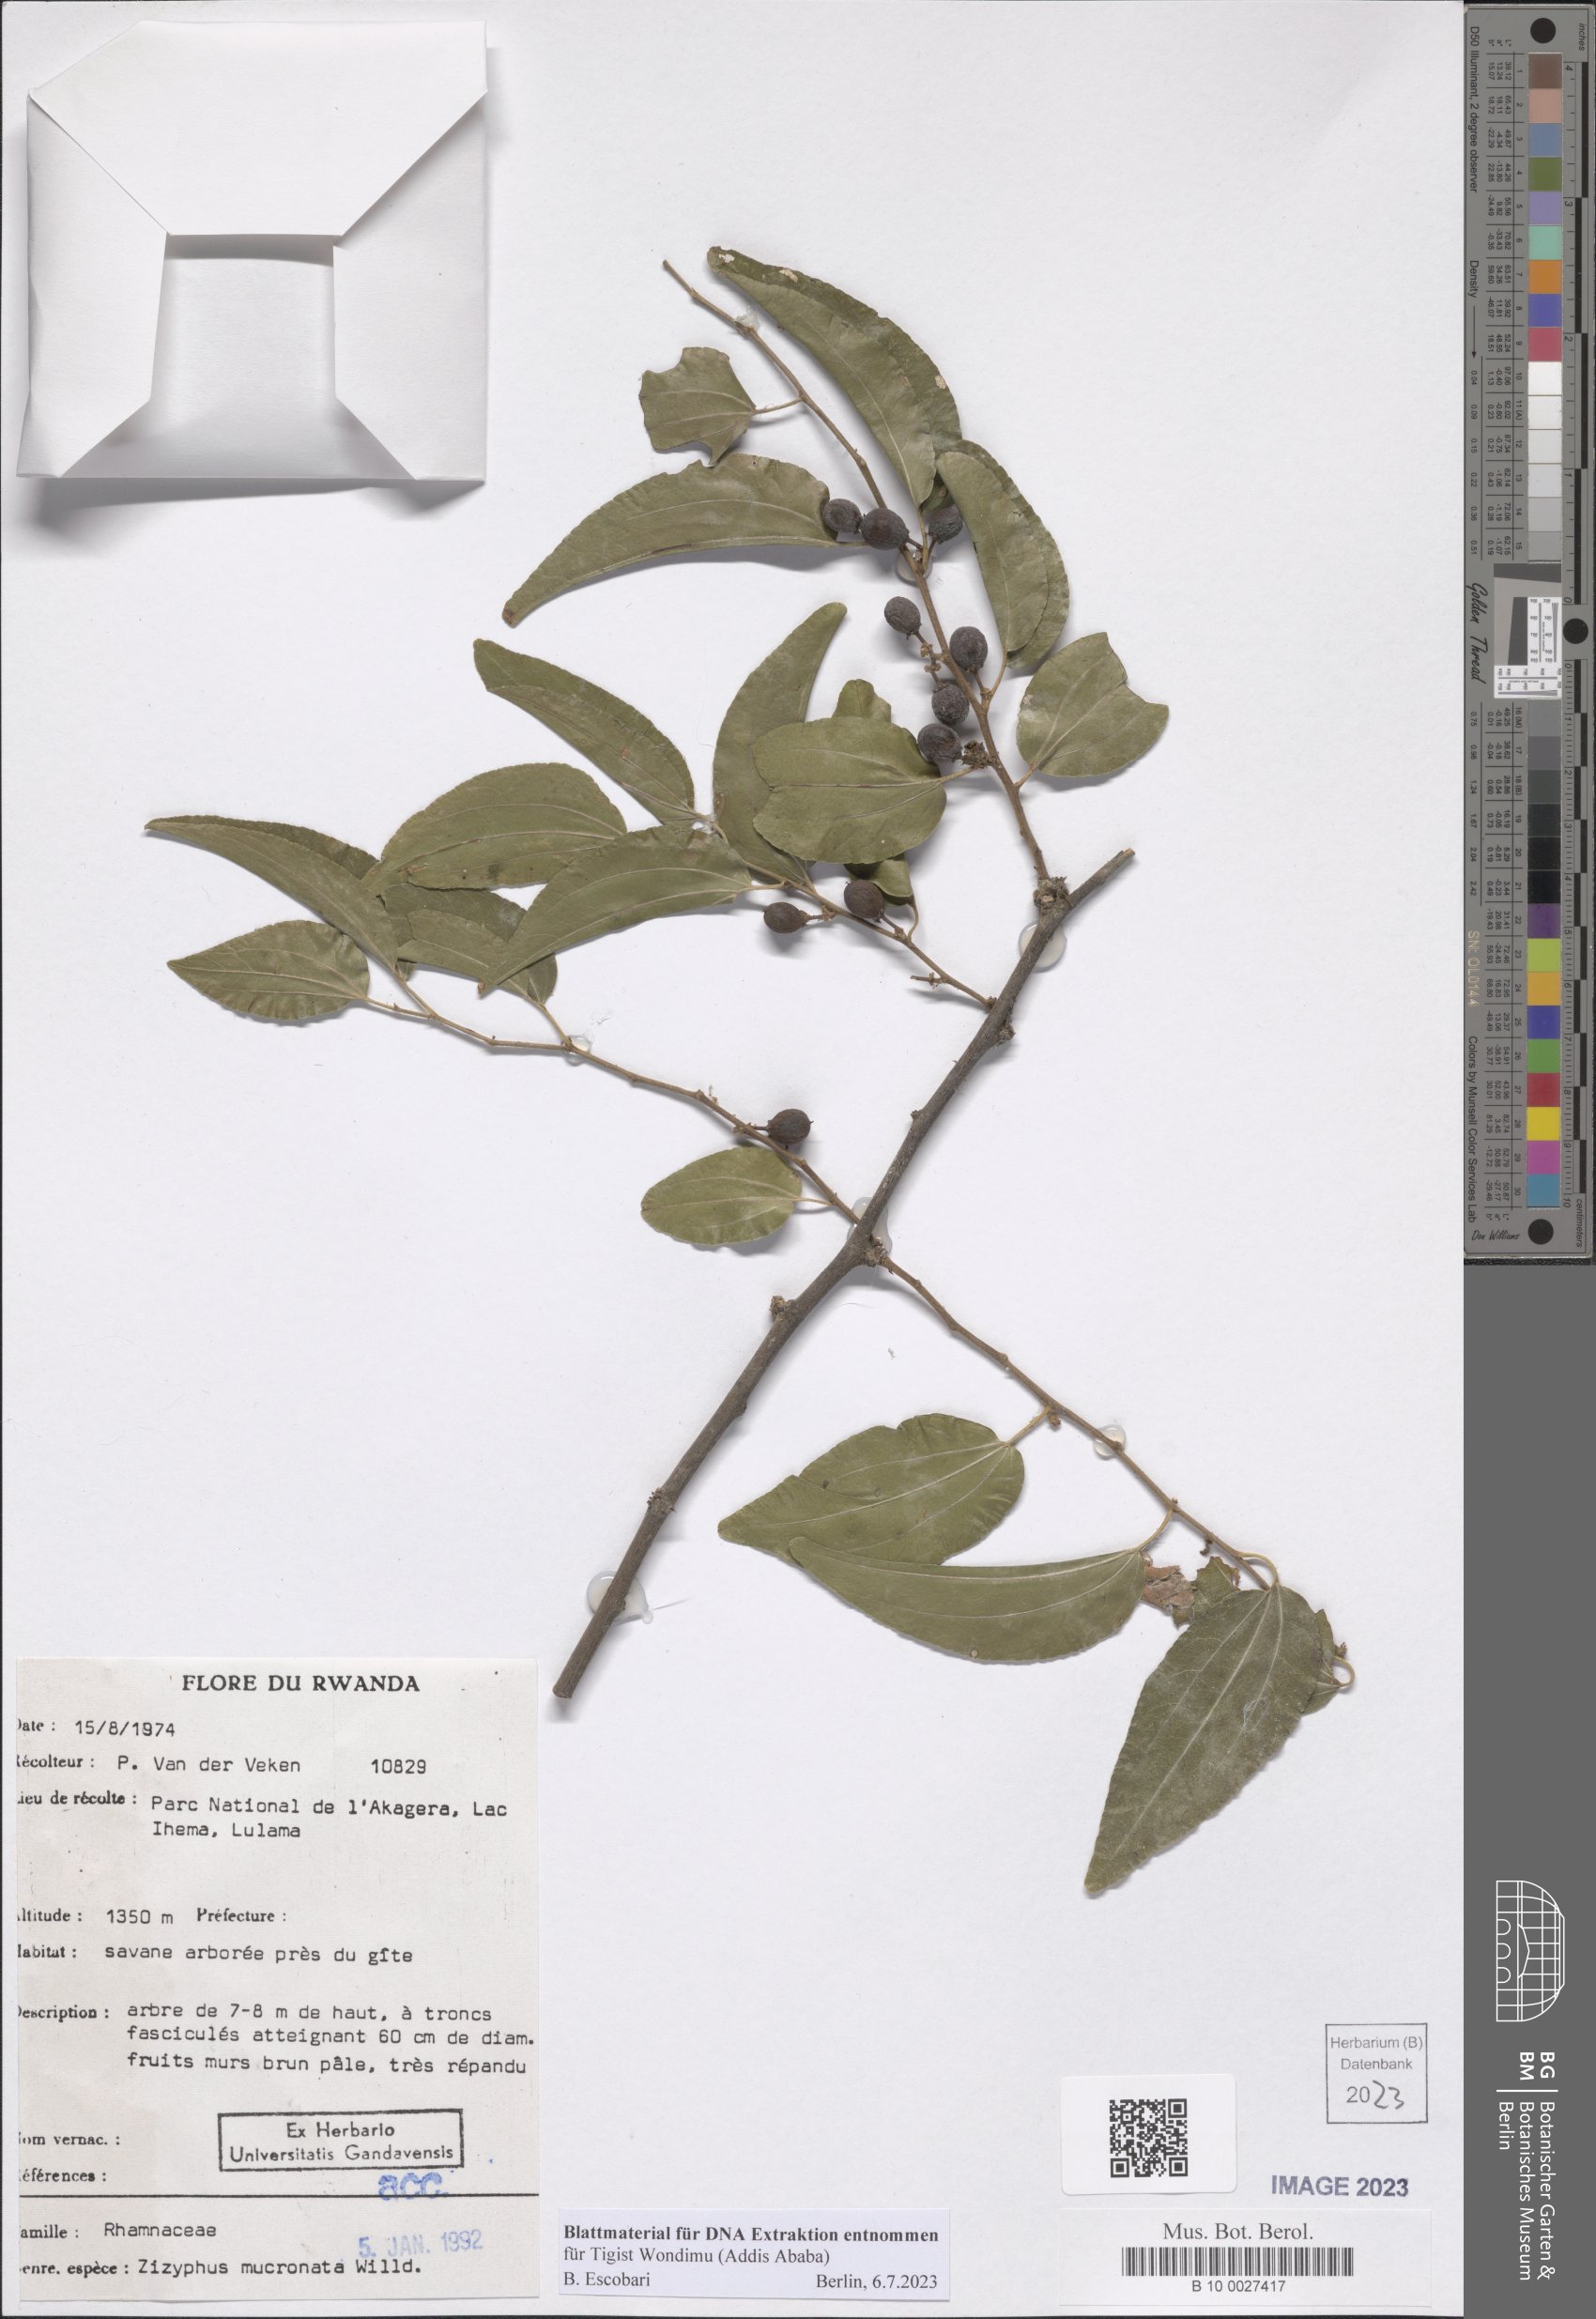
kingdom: Plantae
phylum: Tracheophyta
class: Magnoliopsida
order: Rosales
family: Rhamnaceae
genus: Ziziphus
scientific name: Ziziphus mucronata
